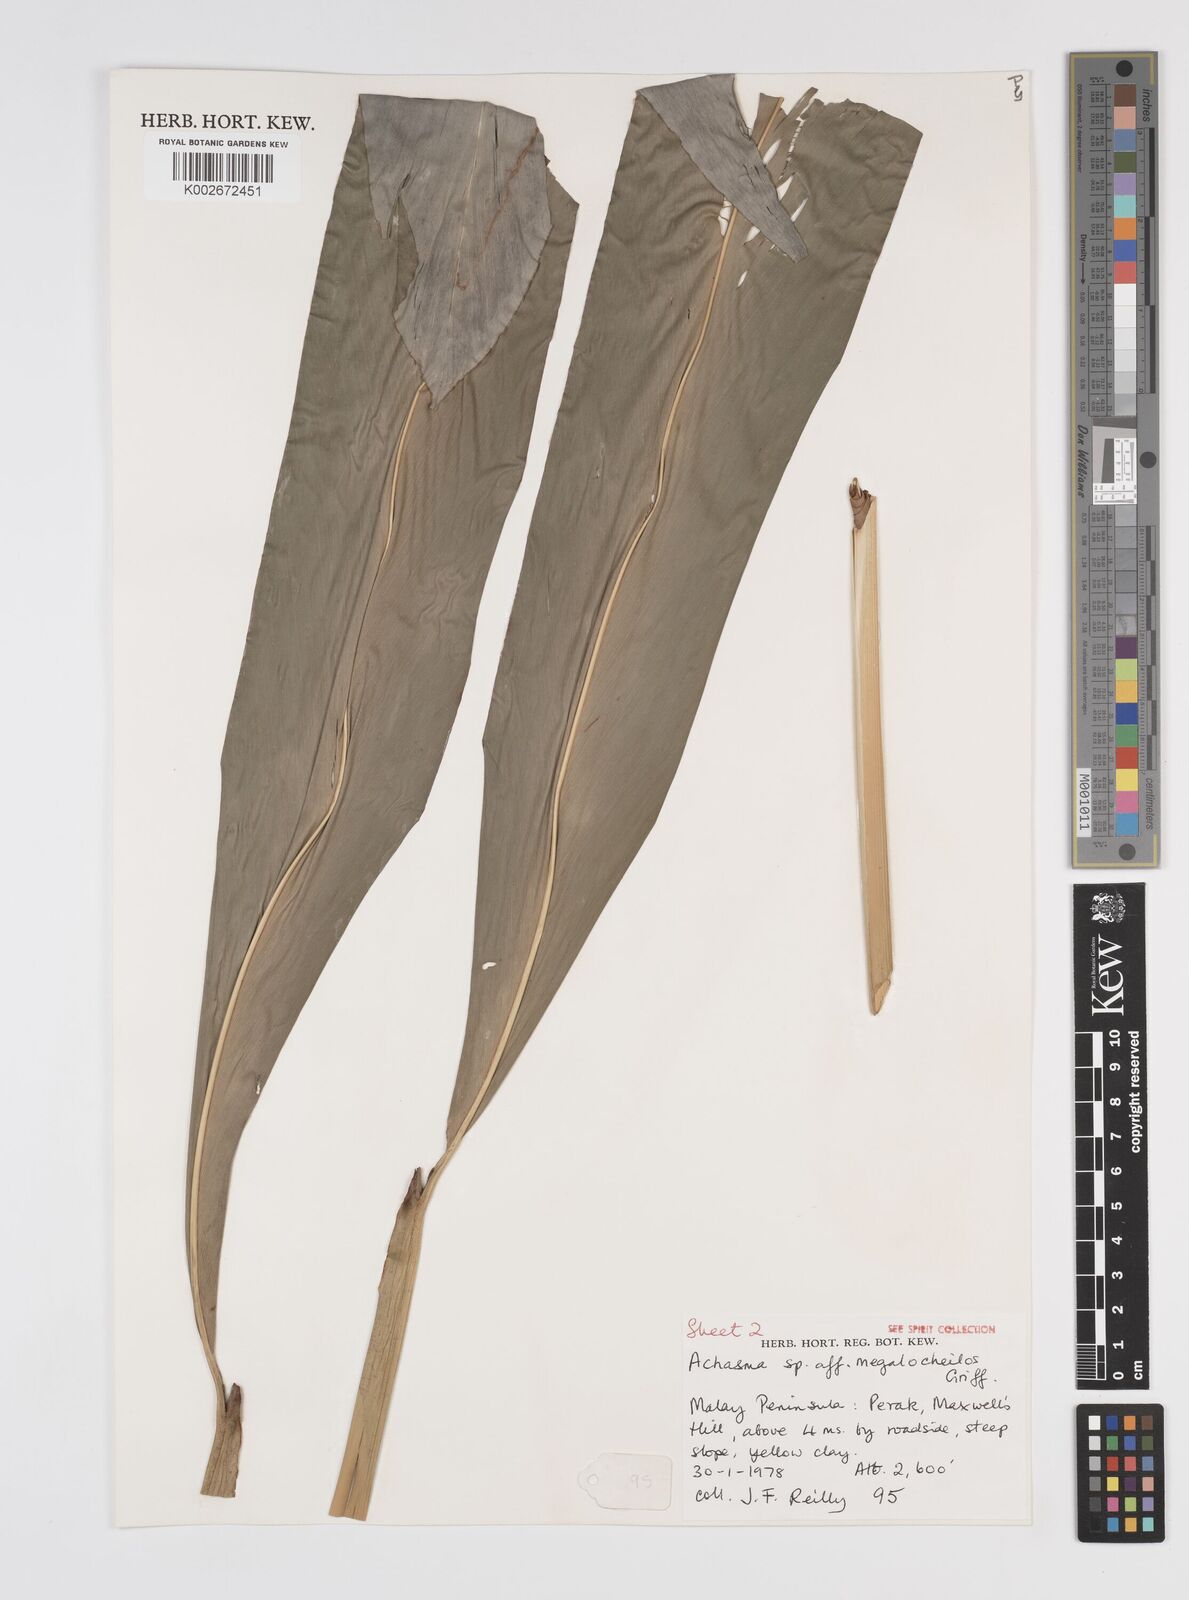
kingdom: Plantae
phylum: Tracheophyta
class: Liliopsida
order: Zingiberales
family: Zingiberaceae
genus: Etlingera
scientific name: Etlingera littoralis
